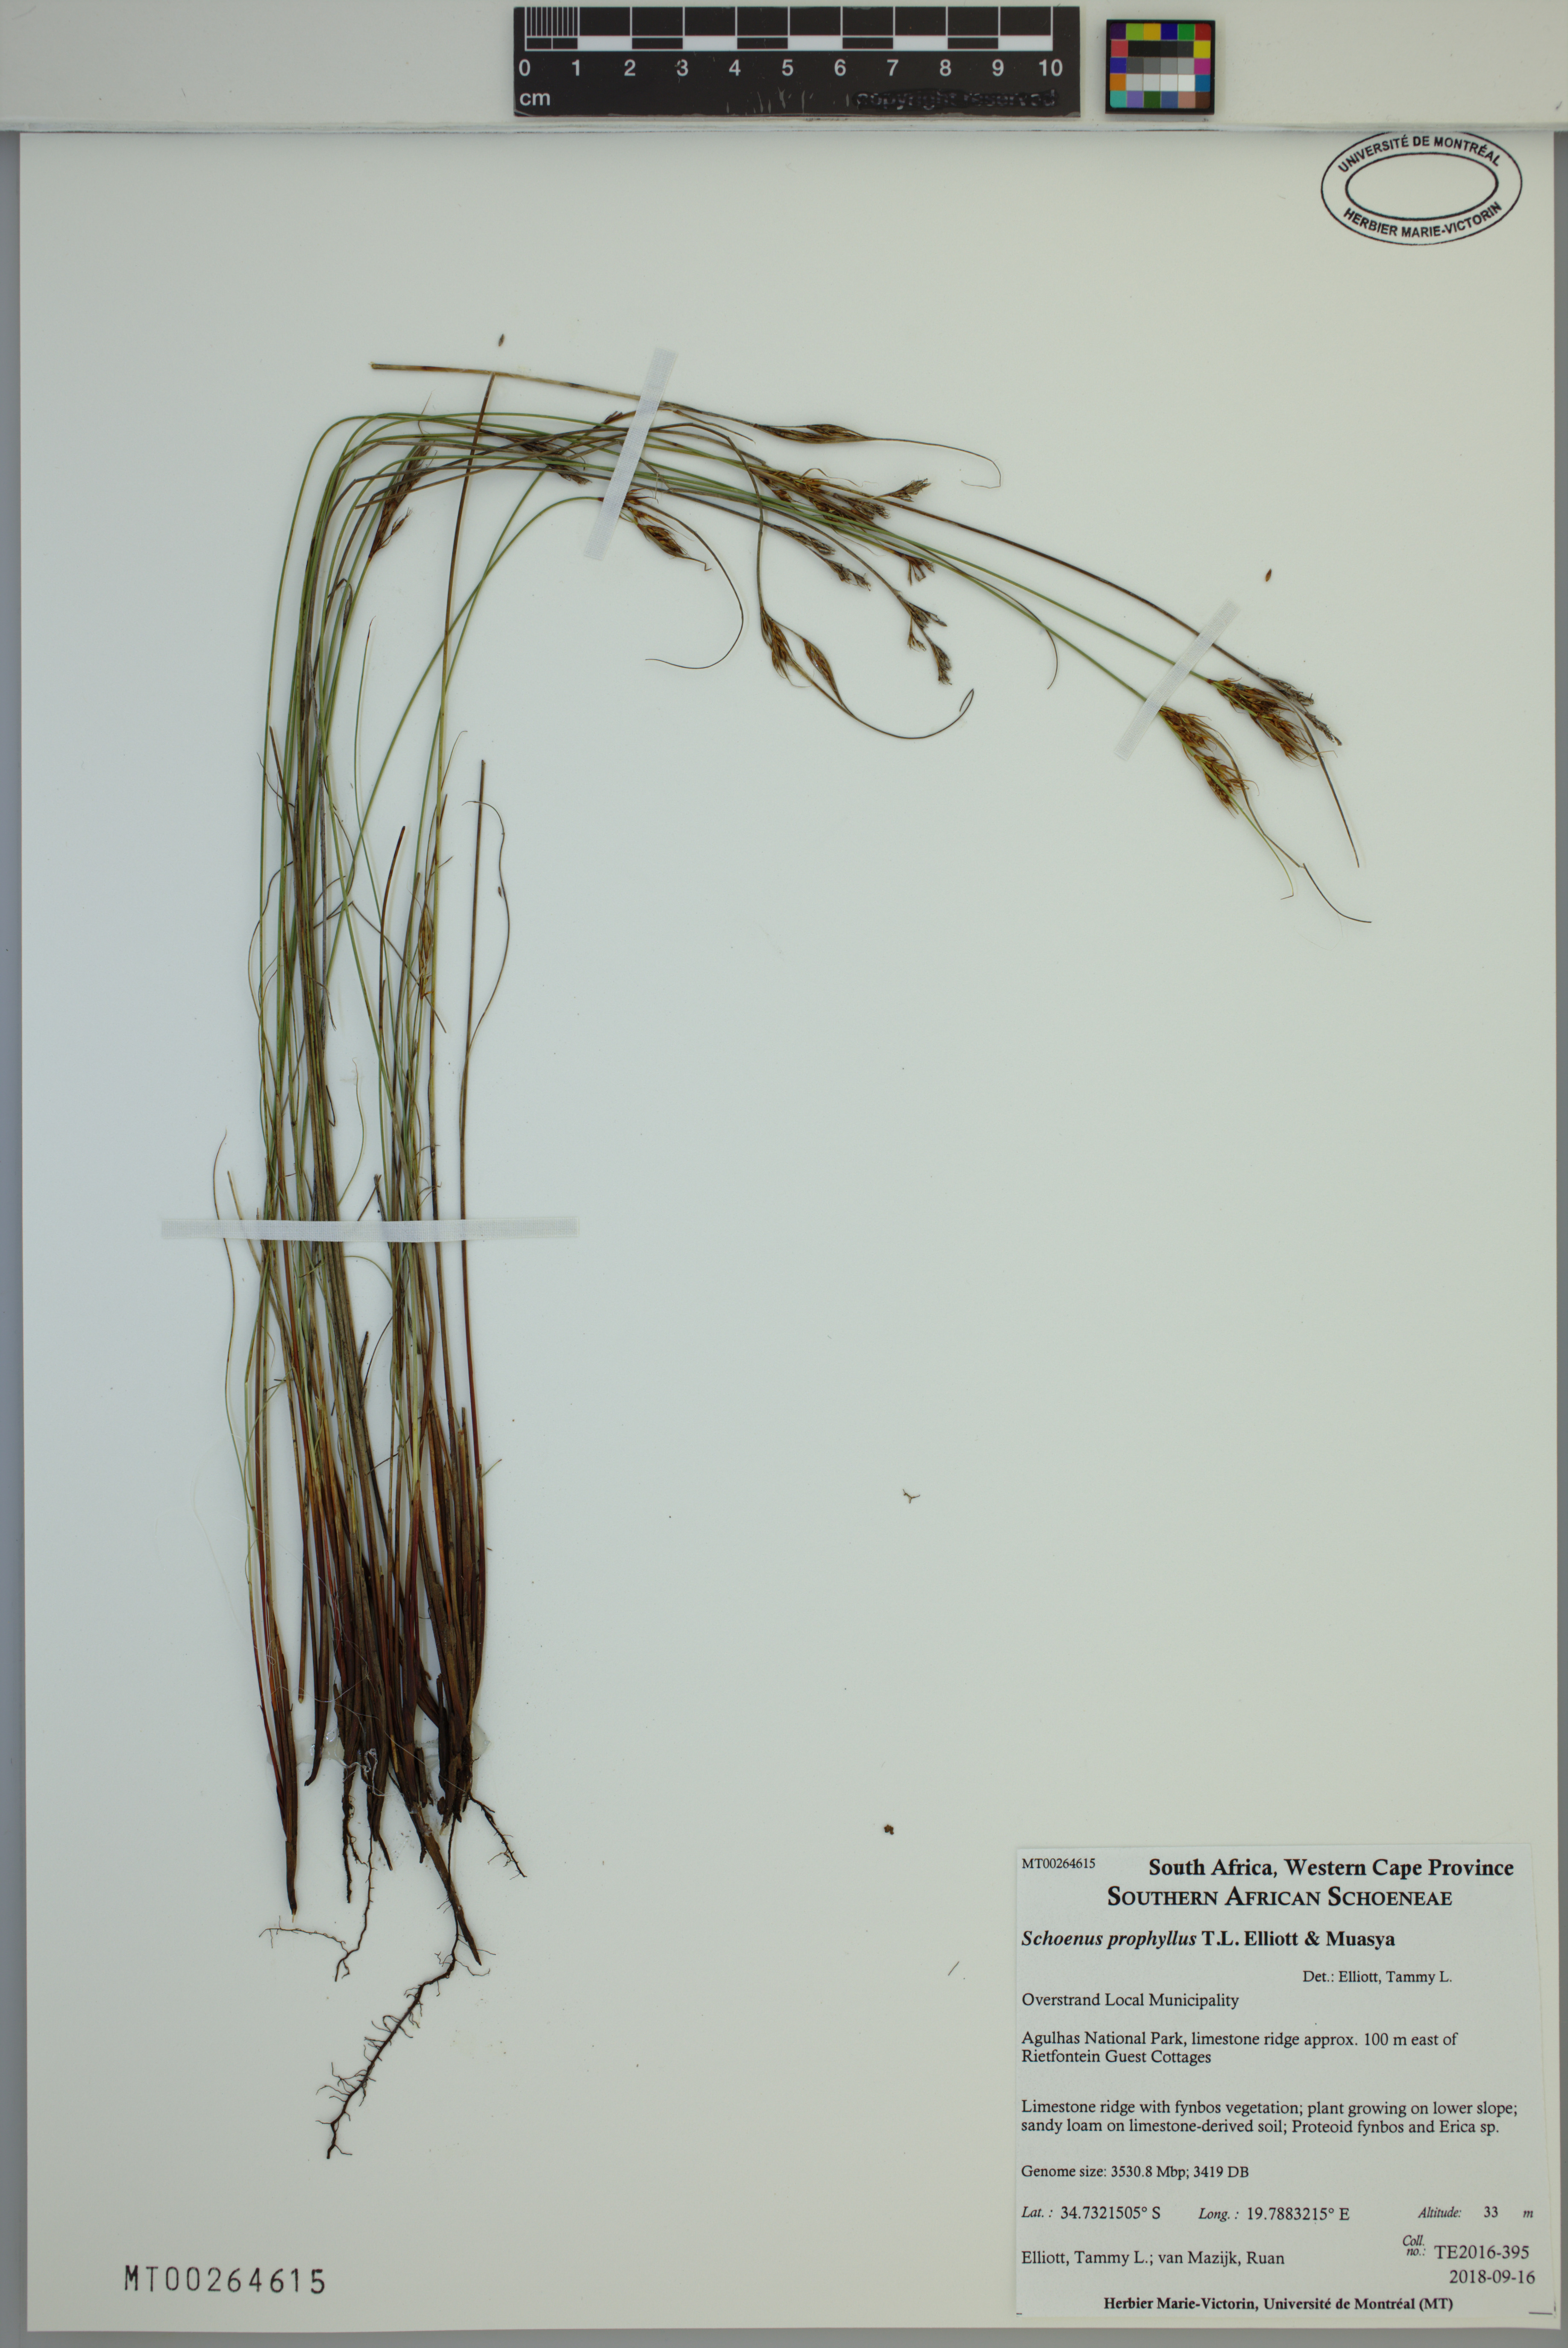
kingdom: Plantae
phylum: Tracheophyta
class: Liliopsida
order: Poales
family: Cyperaceae
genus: Schoenus
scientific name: Schoenus prophyllus
